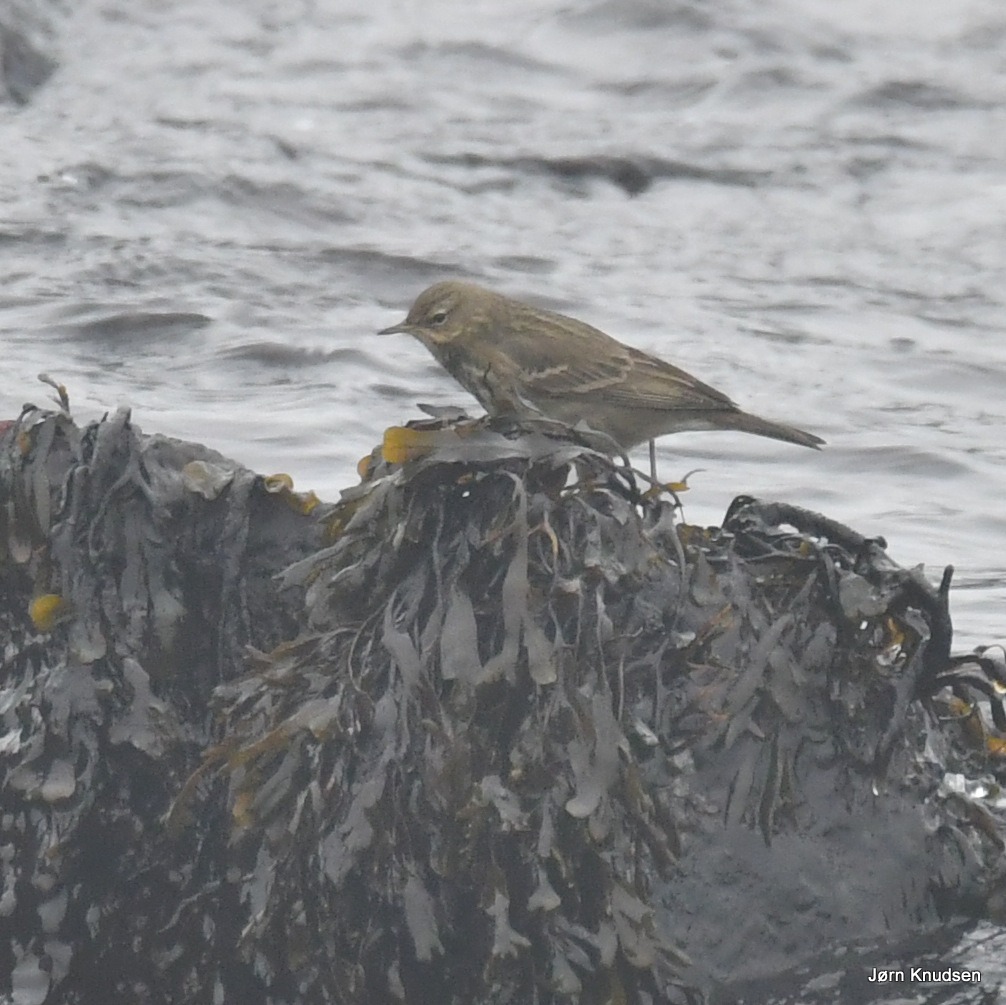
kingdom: Animalia
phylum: Chordata
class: Aves
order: Passeriformes
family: Motacillidae
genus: Anthus
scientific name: Anthus petrosus
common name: Skærpiber
